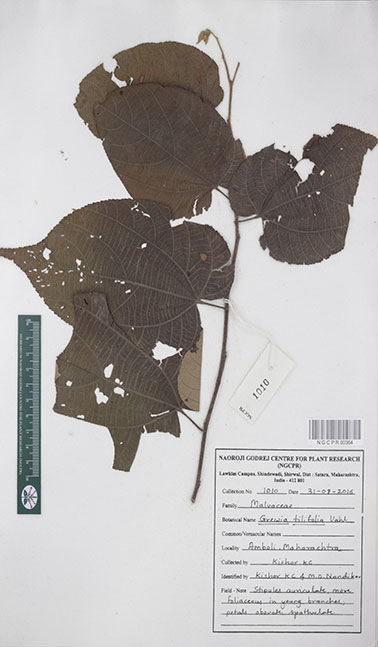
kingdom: Plantae
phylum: Tracheophyta
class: Magnoliopsida
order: Malvales
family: Malvaceae
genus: Grewia
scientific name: Grewia tiliifolia
